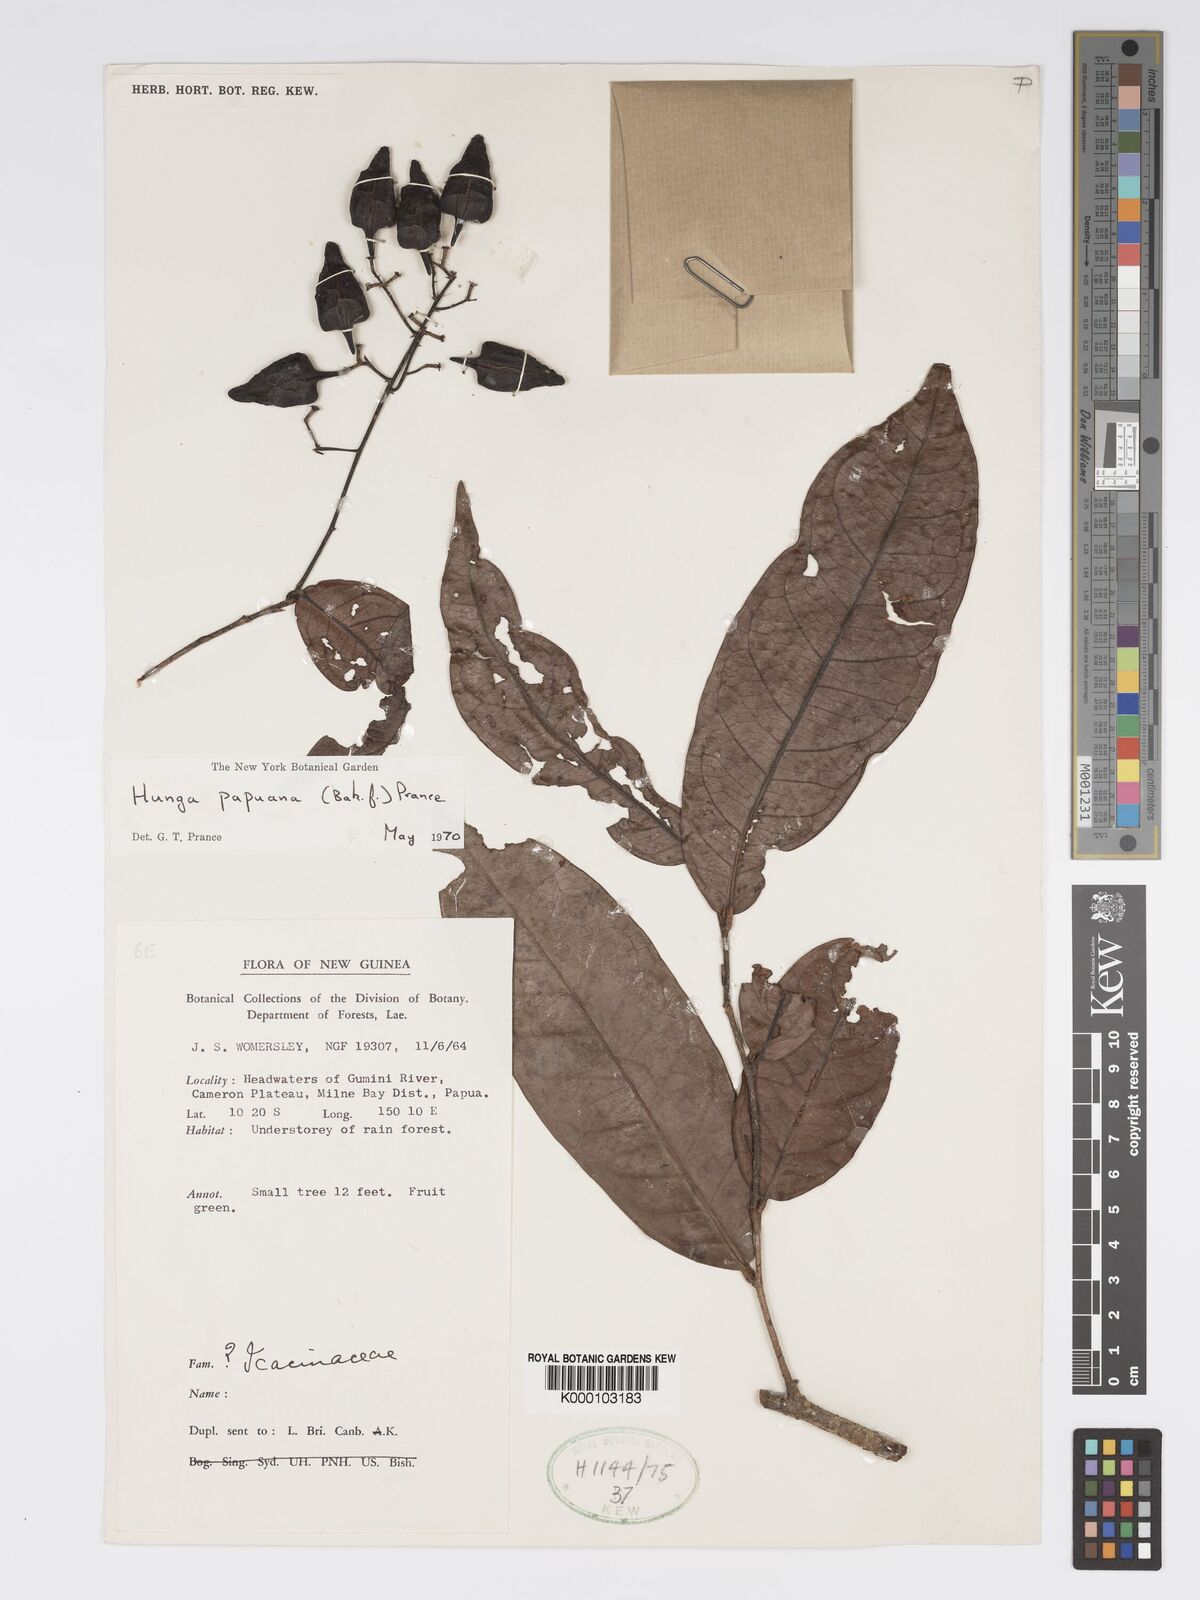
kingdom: Plantae
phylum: Tracheophyta
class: Magnoliopsida
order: Malpighiales
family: Chrysobalanaceae
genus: Hunga
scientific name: Hunga papuana
